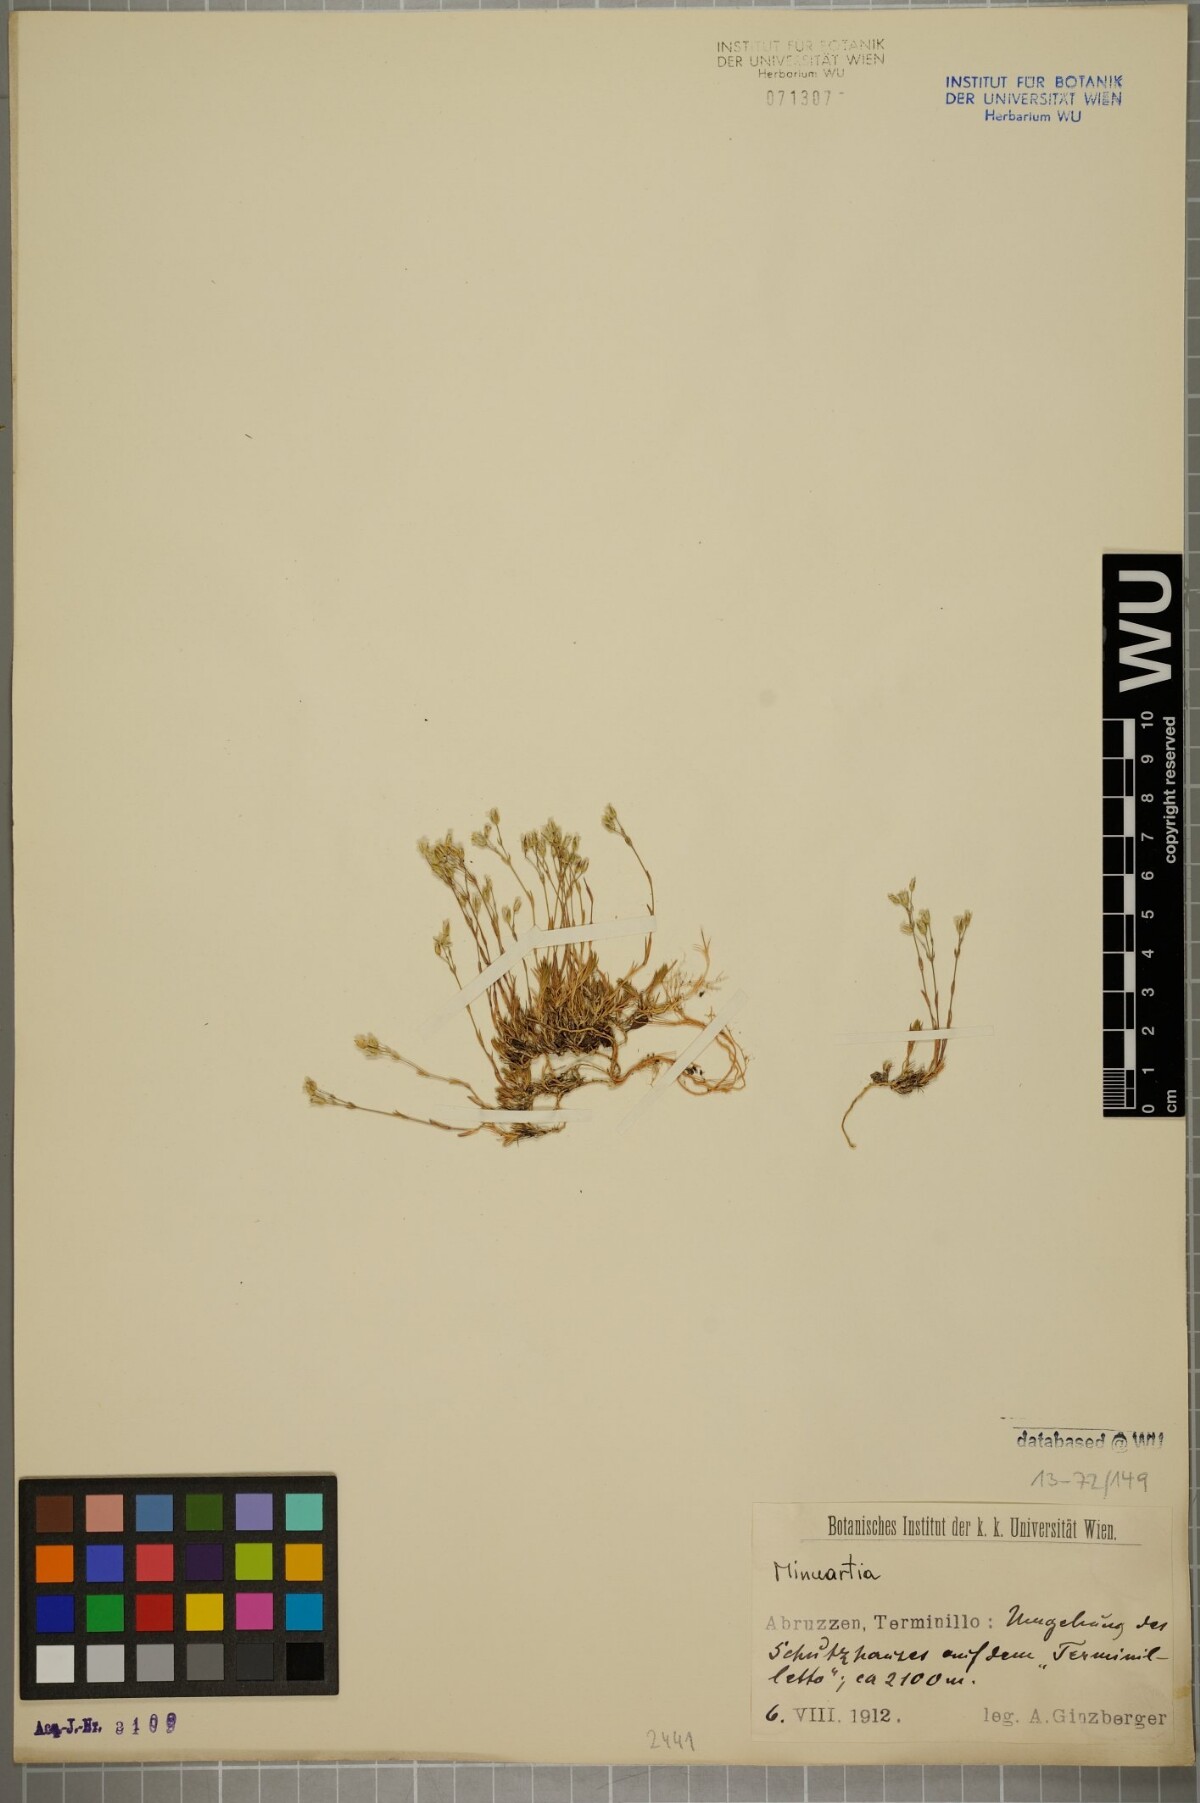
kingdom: Plantae
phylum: Tracheophyta
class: Magnoliopsida
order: Caryophyllales
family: Caryophyllaceae
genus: Sabulina
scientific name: Sabulina verna
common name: Spring sandwort
